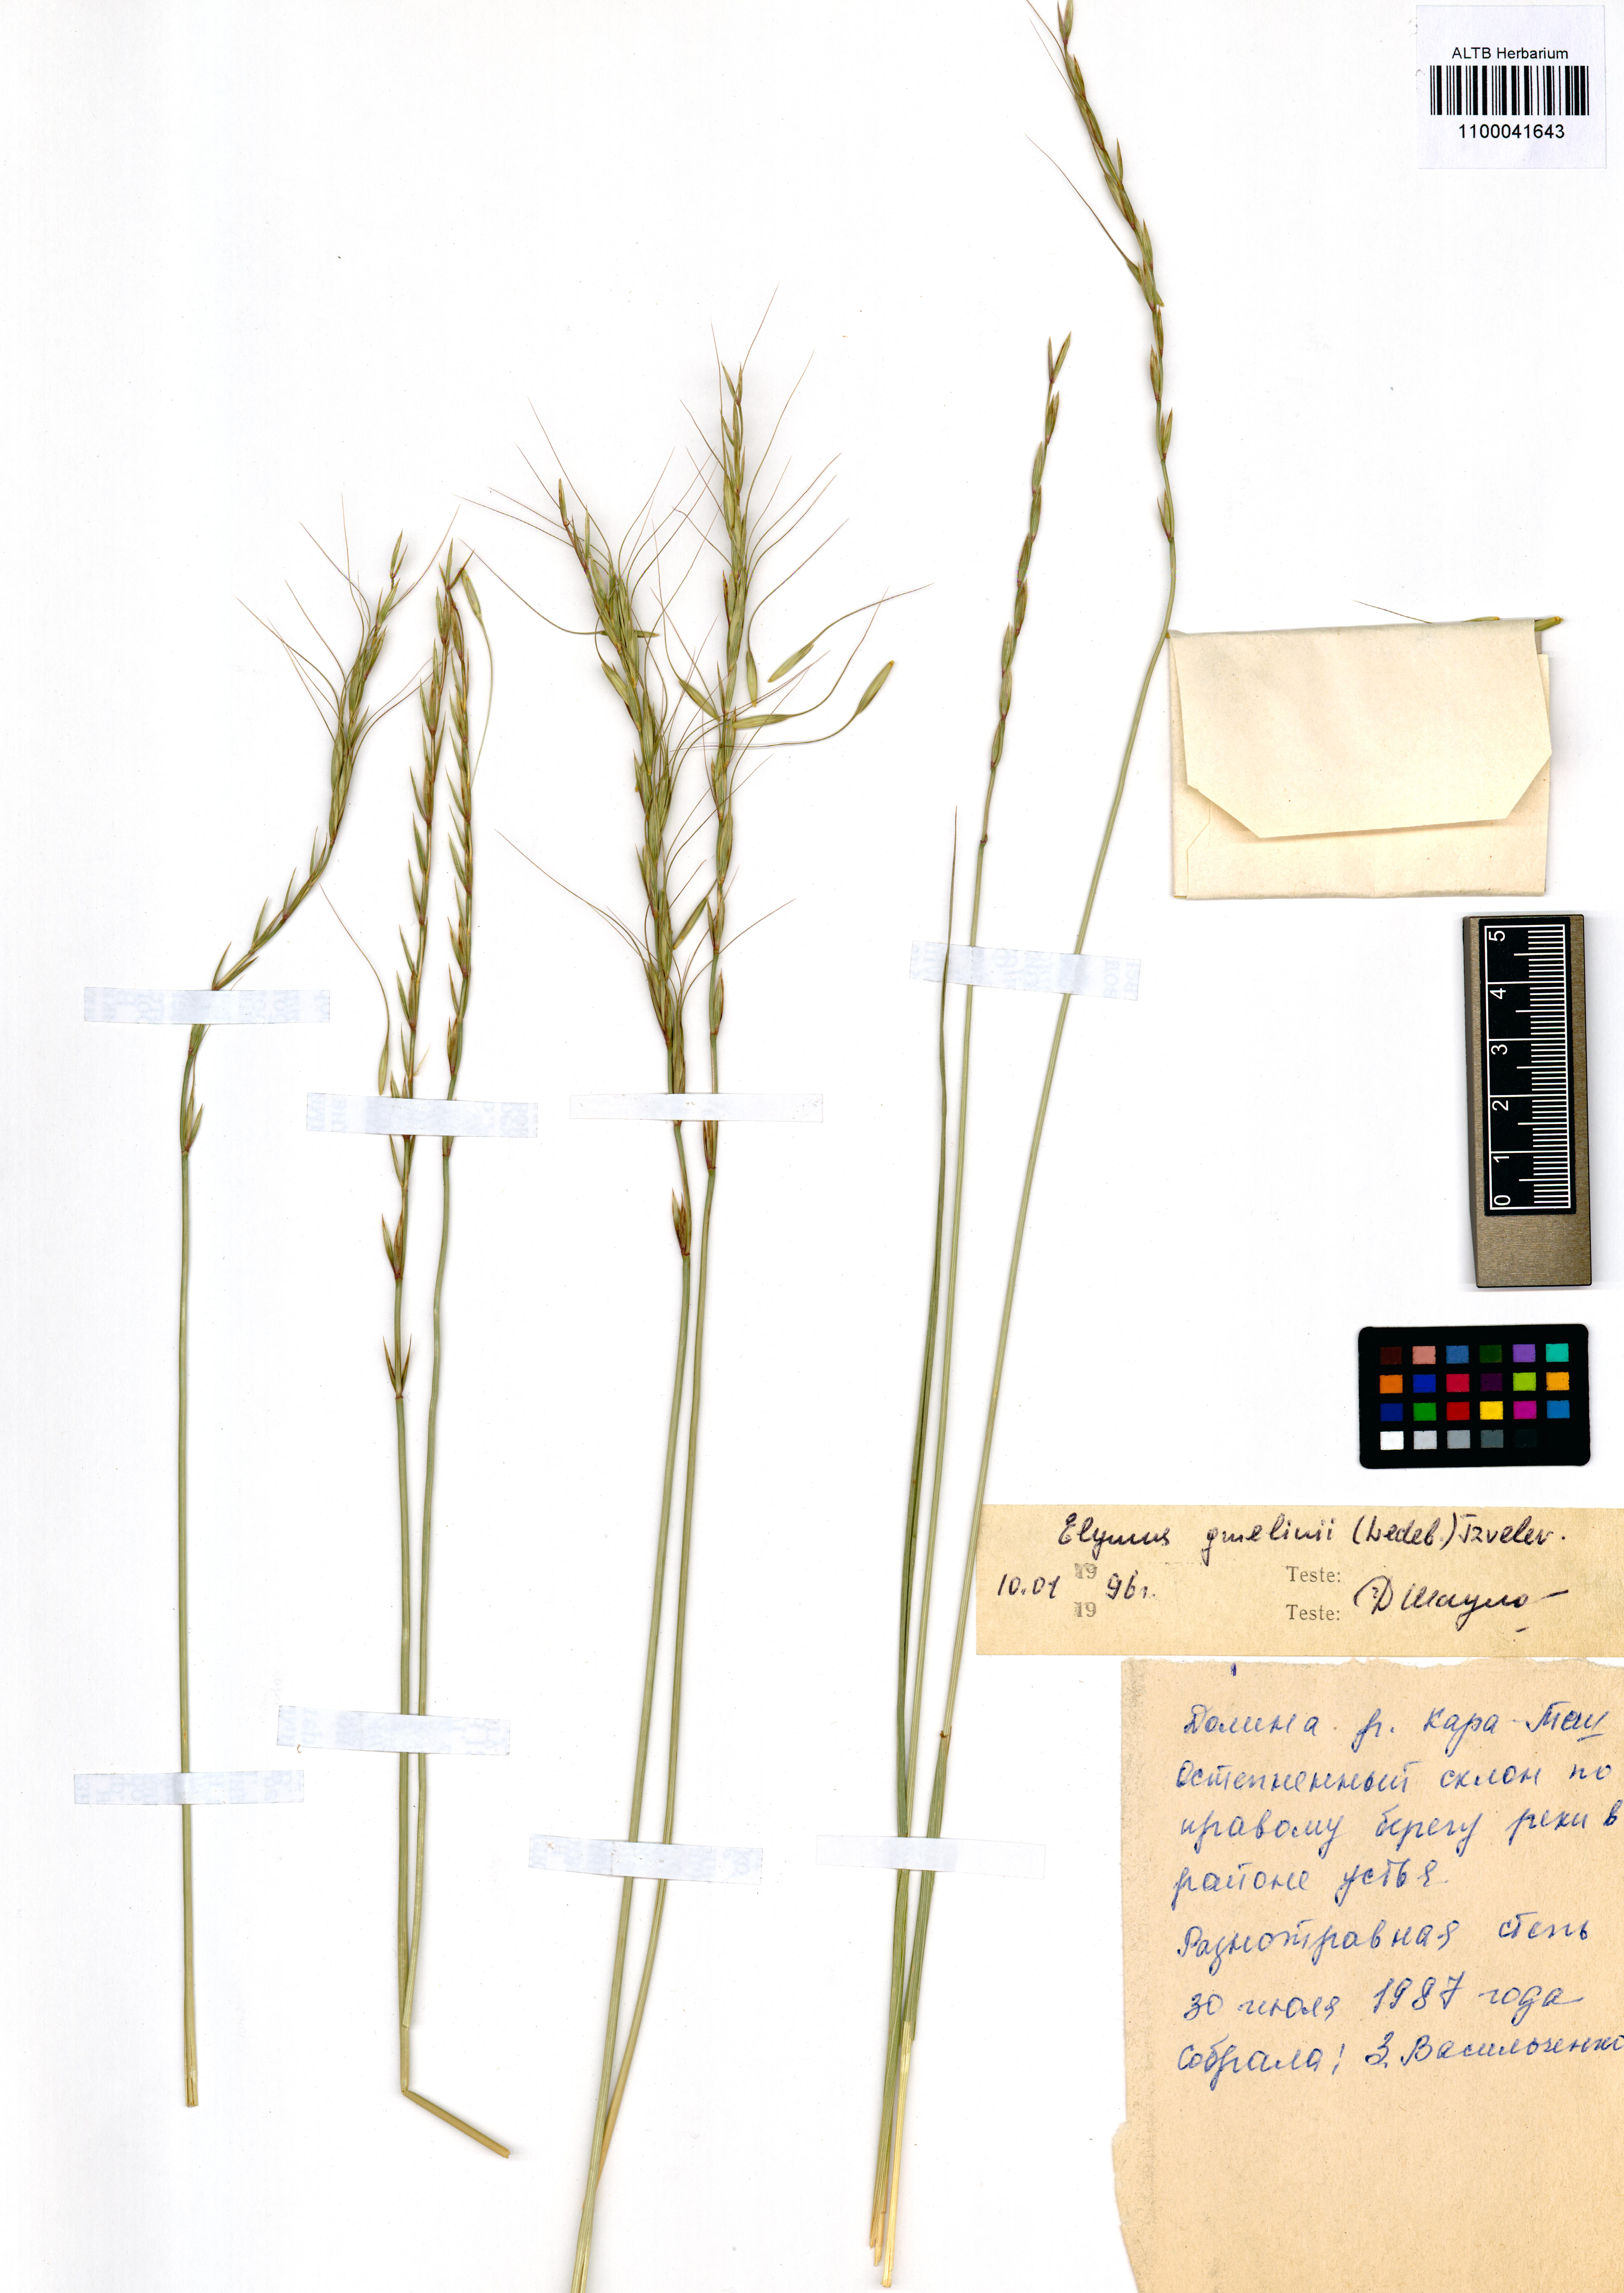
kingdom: Plantae
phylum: Tracheophyta
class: Liliopsida
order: Poales
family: Poaceae
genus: Elymus
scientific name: Elymus gmelinii
